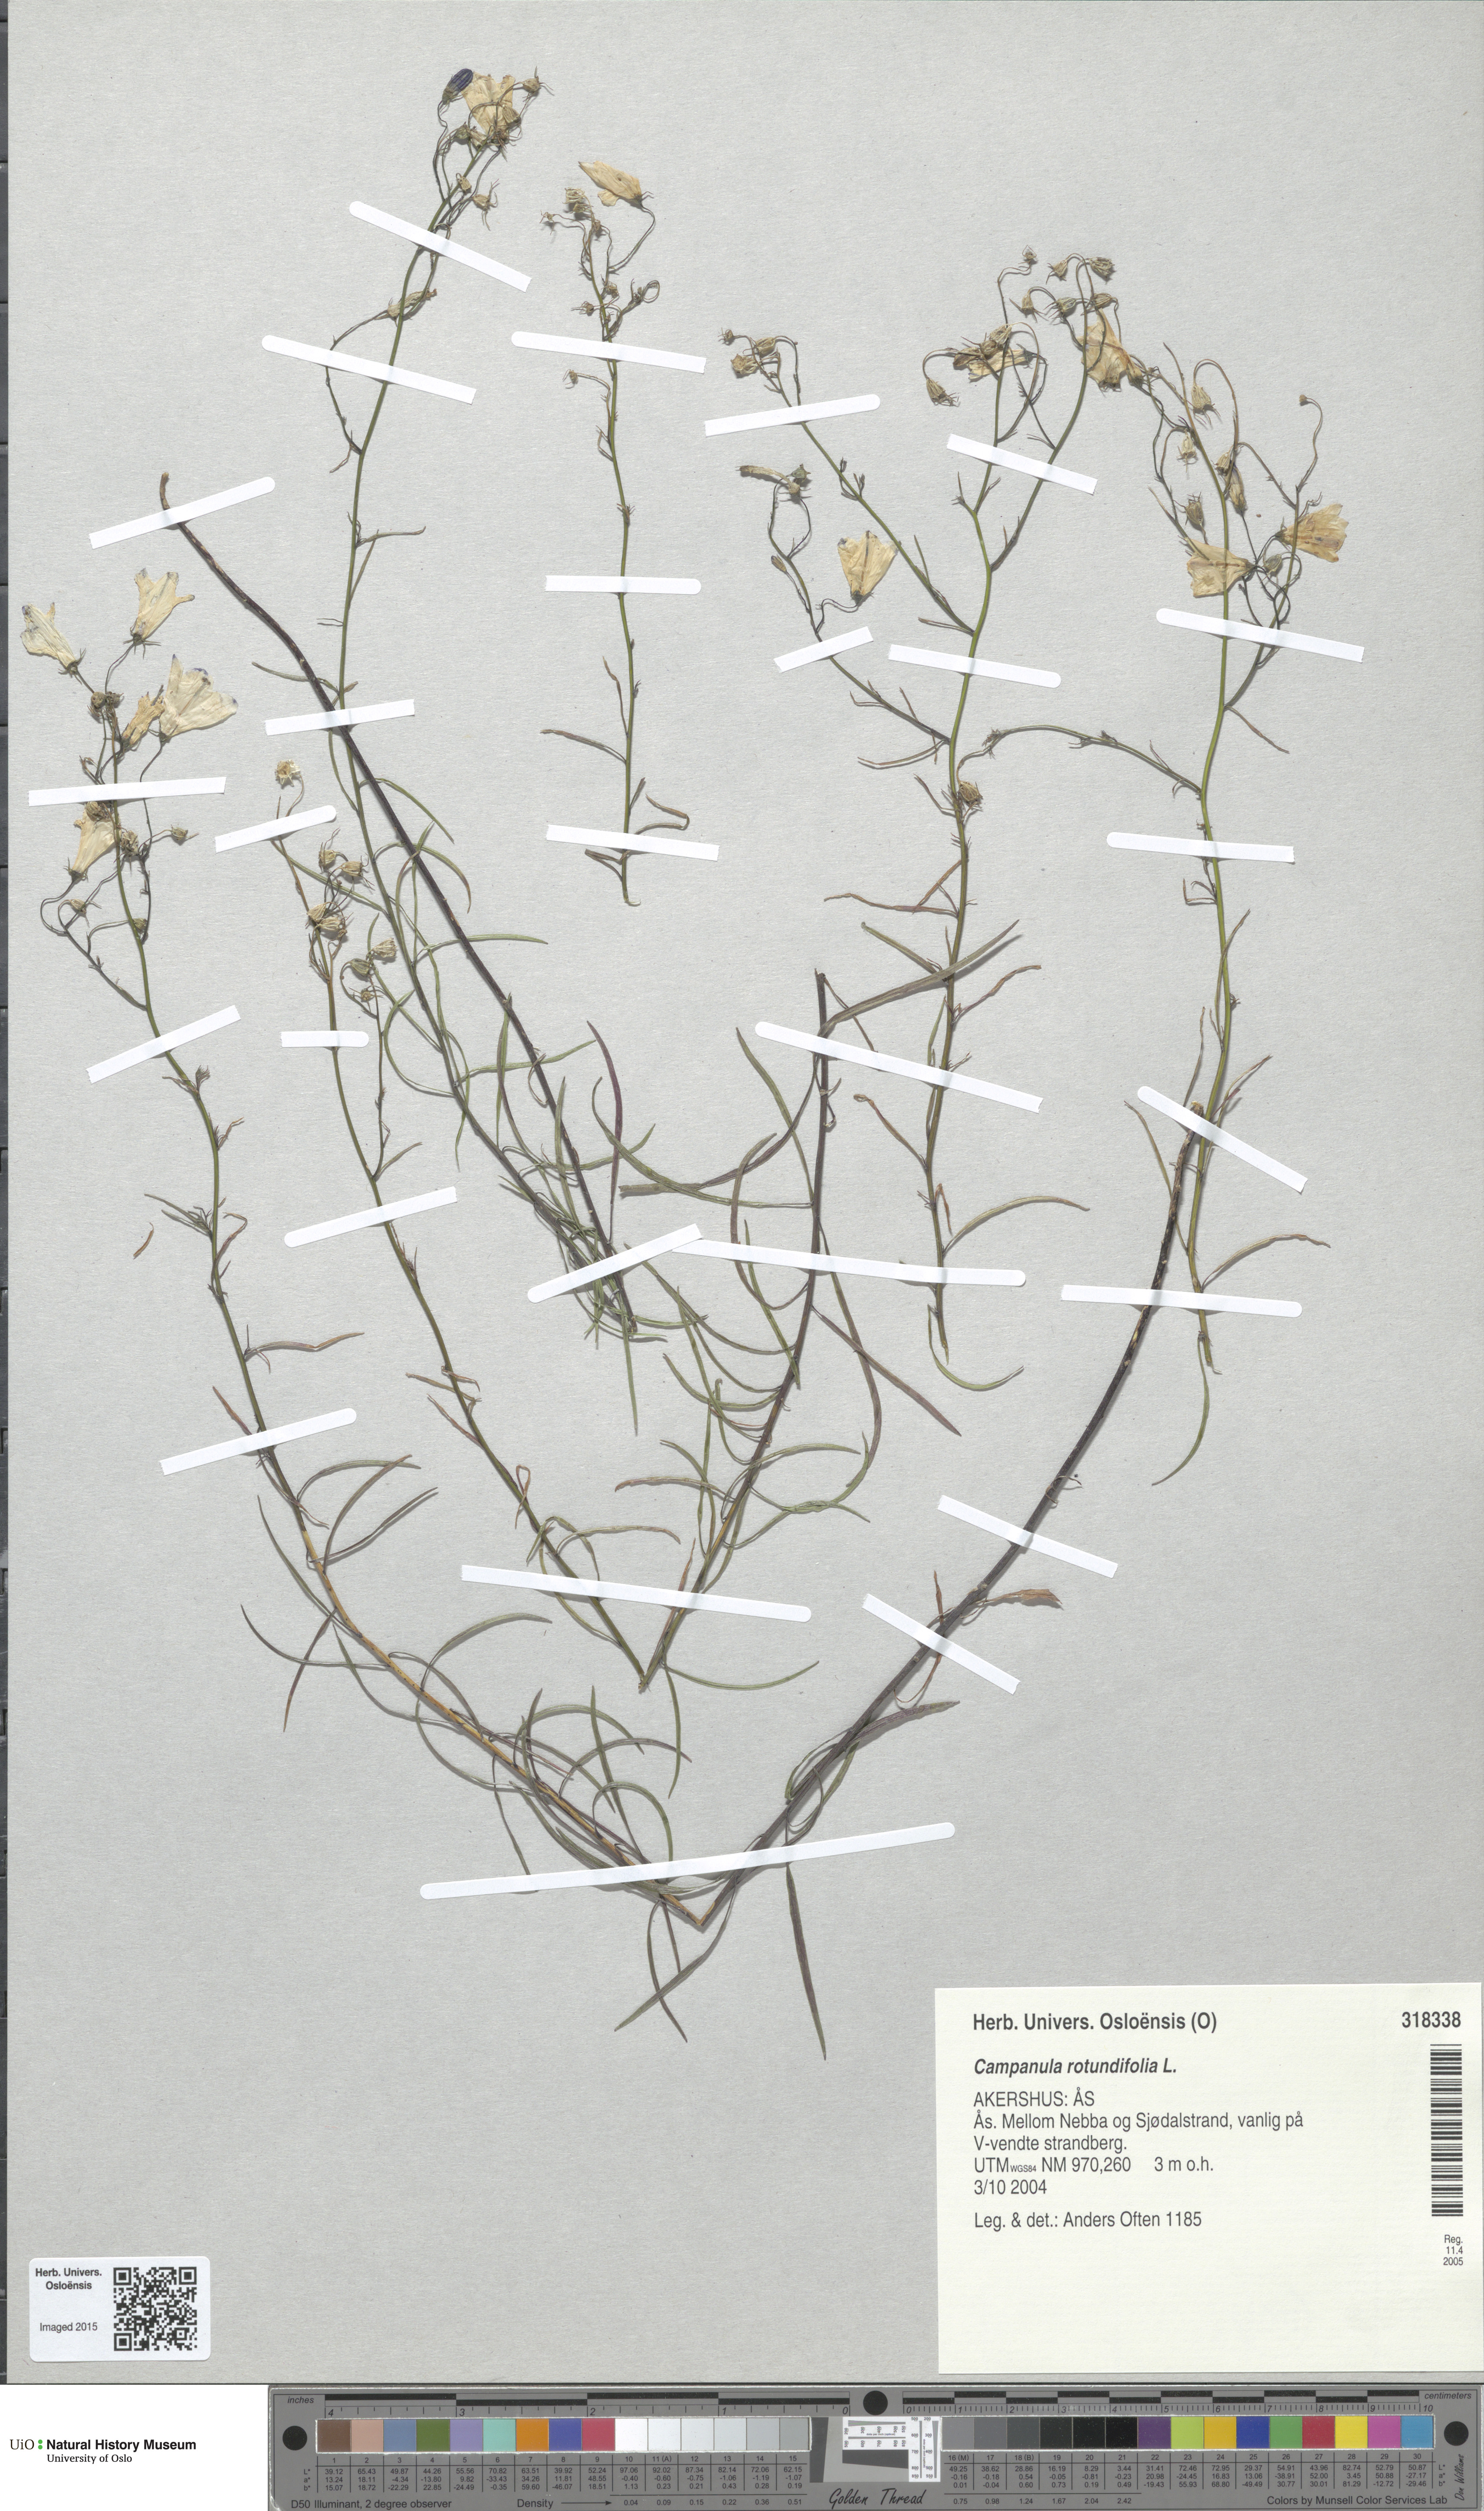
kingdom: Plantae
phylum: Tracheophyta
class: Magnoliopsida
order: Asterales
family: Campanulaceae
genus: Campanula
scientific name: Campanula rotundifolia
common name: Harebell
